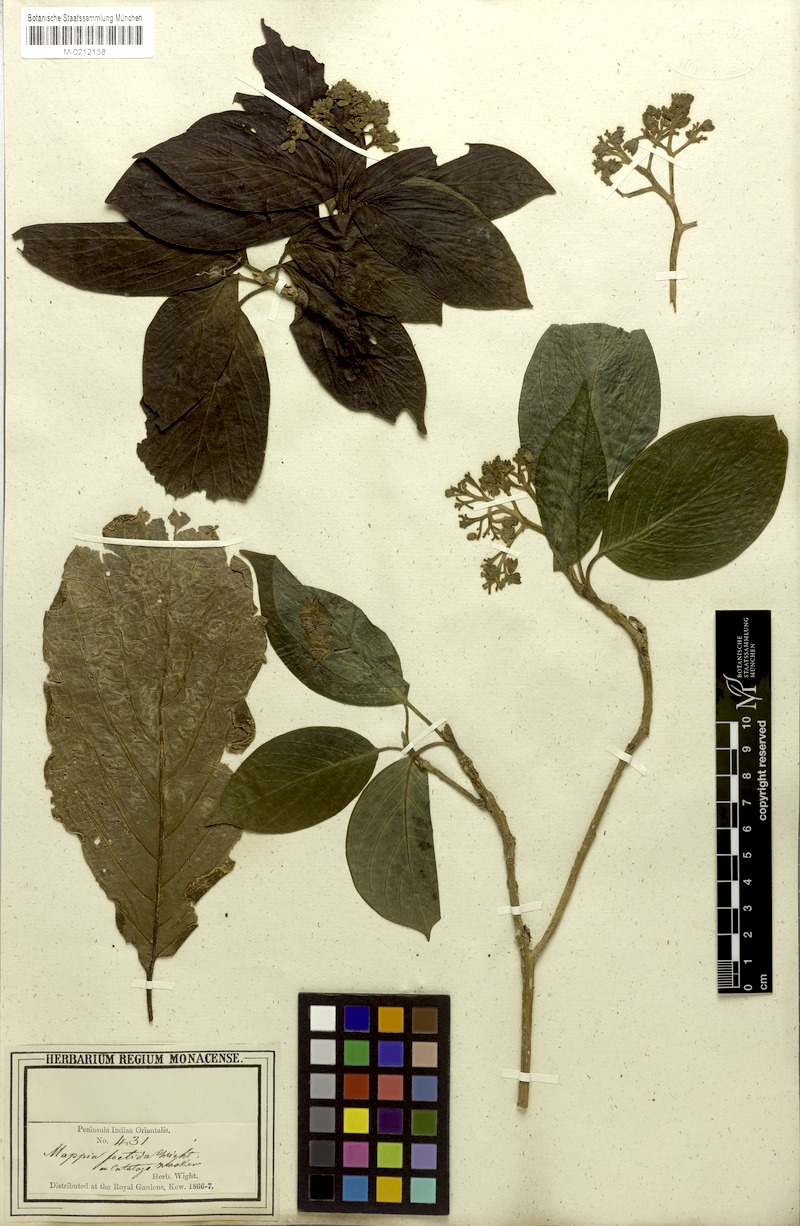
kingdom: Plantae
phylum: Tracheophyta
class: Magnoliopsida
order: Icacinales
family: Icacinaceae
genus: Nothapodytes
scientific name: Nothapodytes nimmoniana
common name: Nothapodytes
